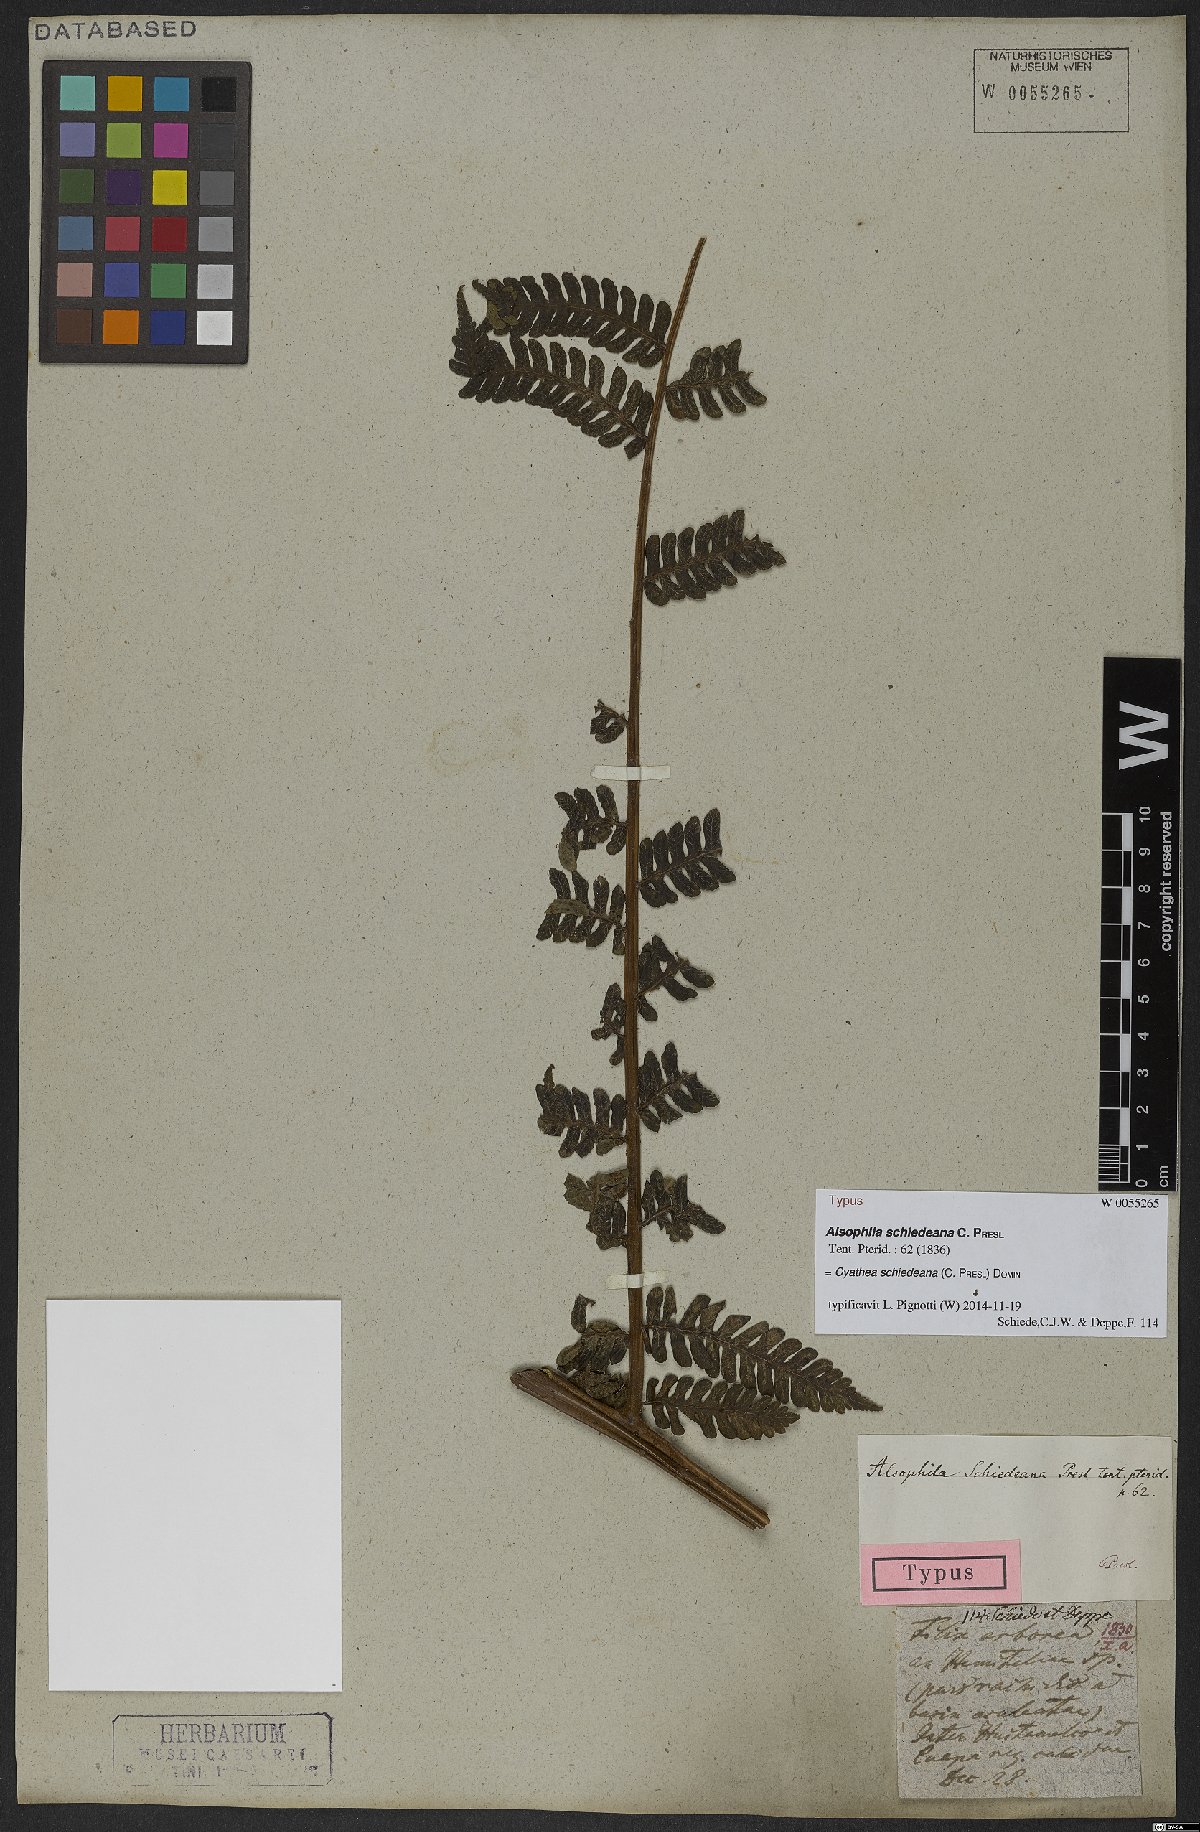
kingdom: Plantae
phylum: Tracheophyta
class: Polypodiopsida
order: Cyatheales
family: Cyatheaceae
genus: Cyathea
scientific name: Cyathea schiedeana
